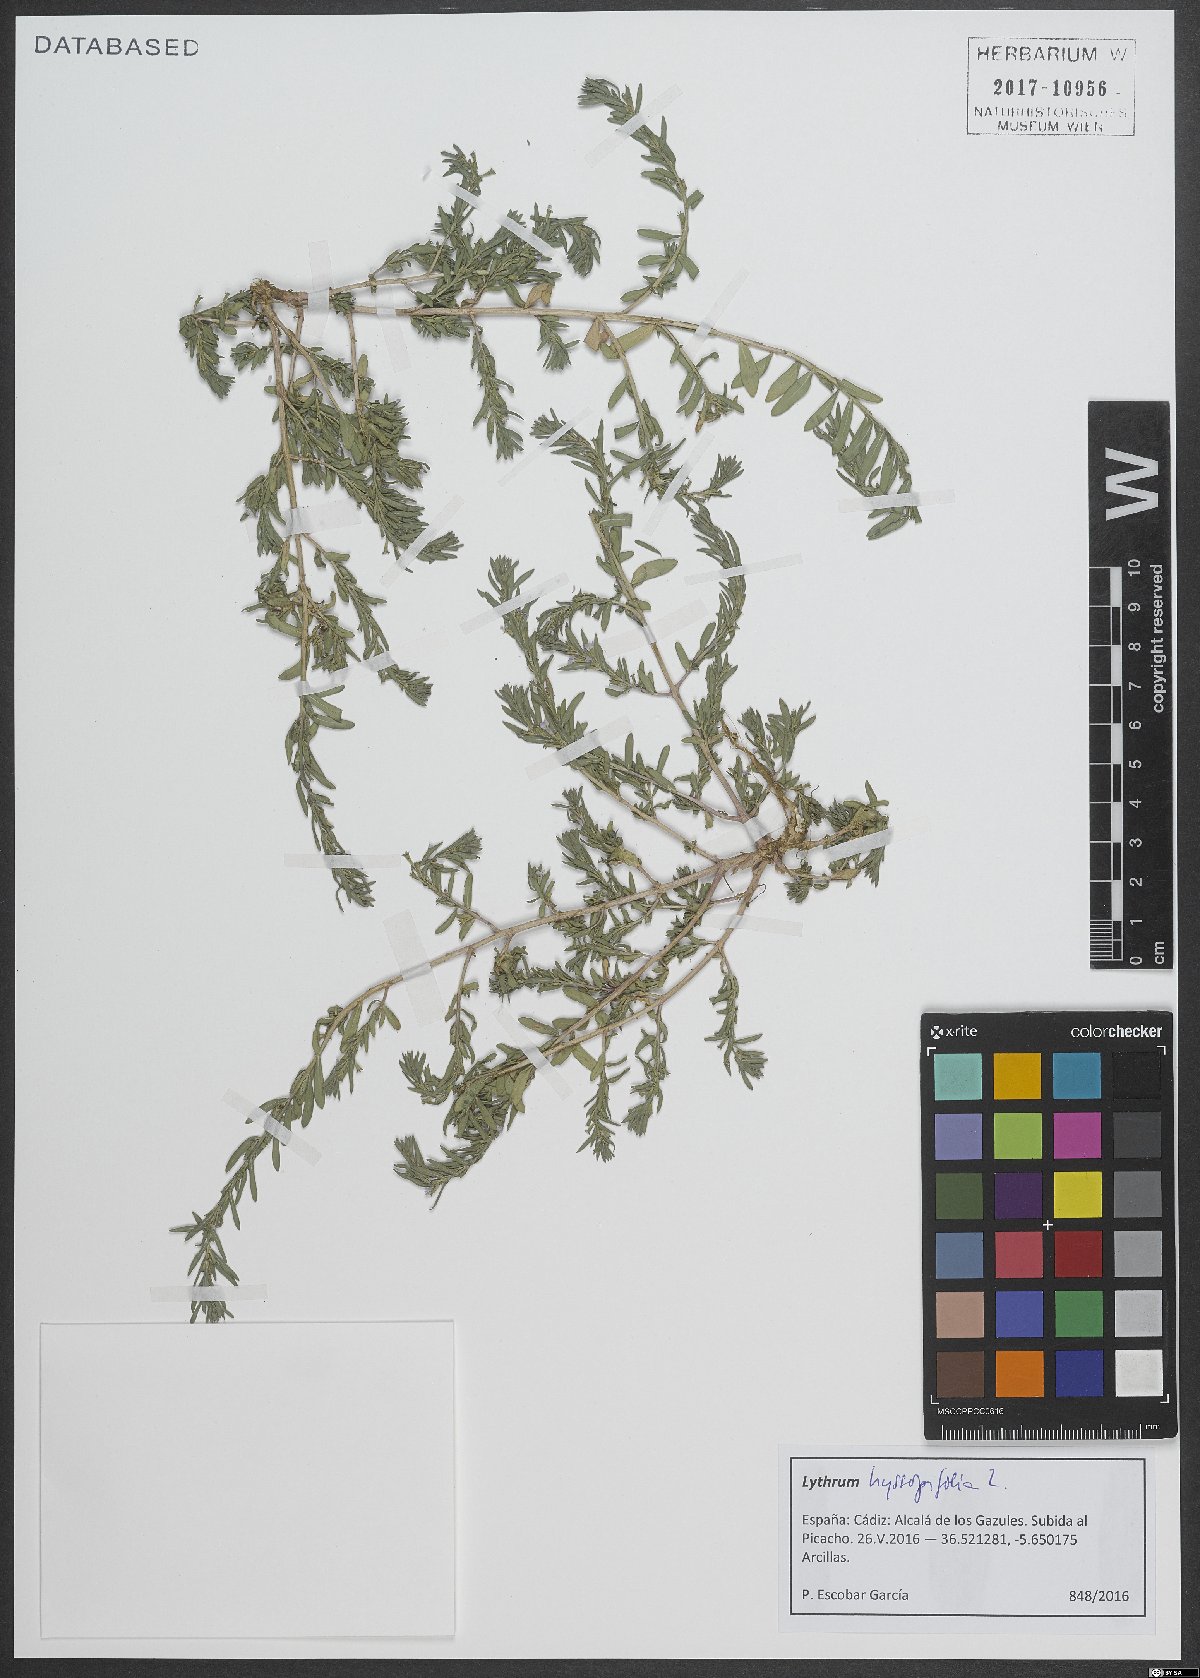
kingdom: Plantae
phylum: Tracheophyta
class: Magnoliopsida
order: Myrtales
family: Lythraceae
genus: Lythrum
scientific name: Lythrum hyssopifolia
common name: Grass-poly
